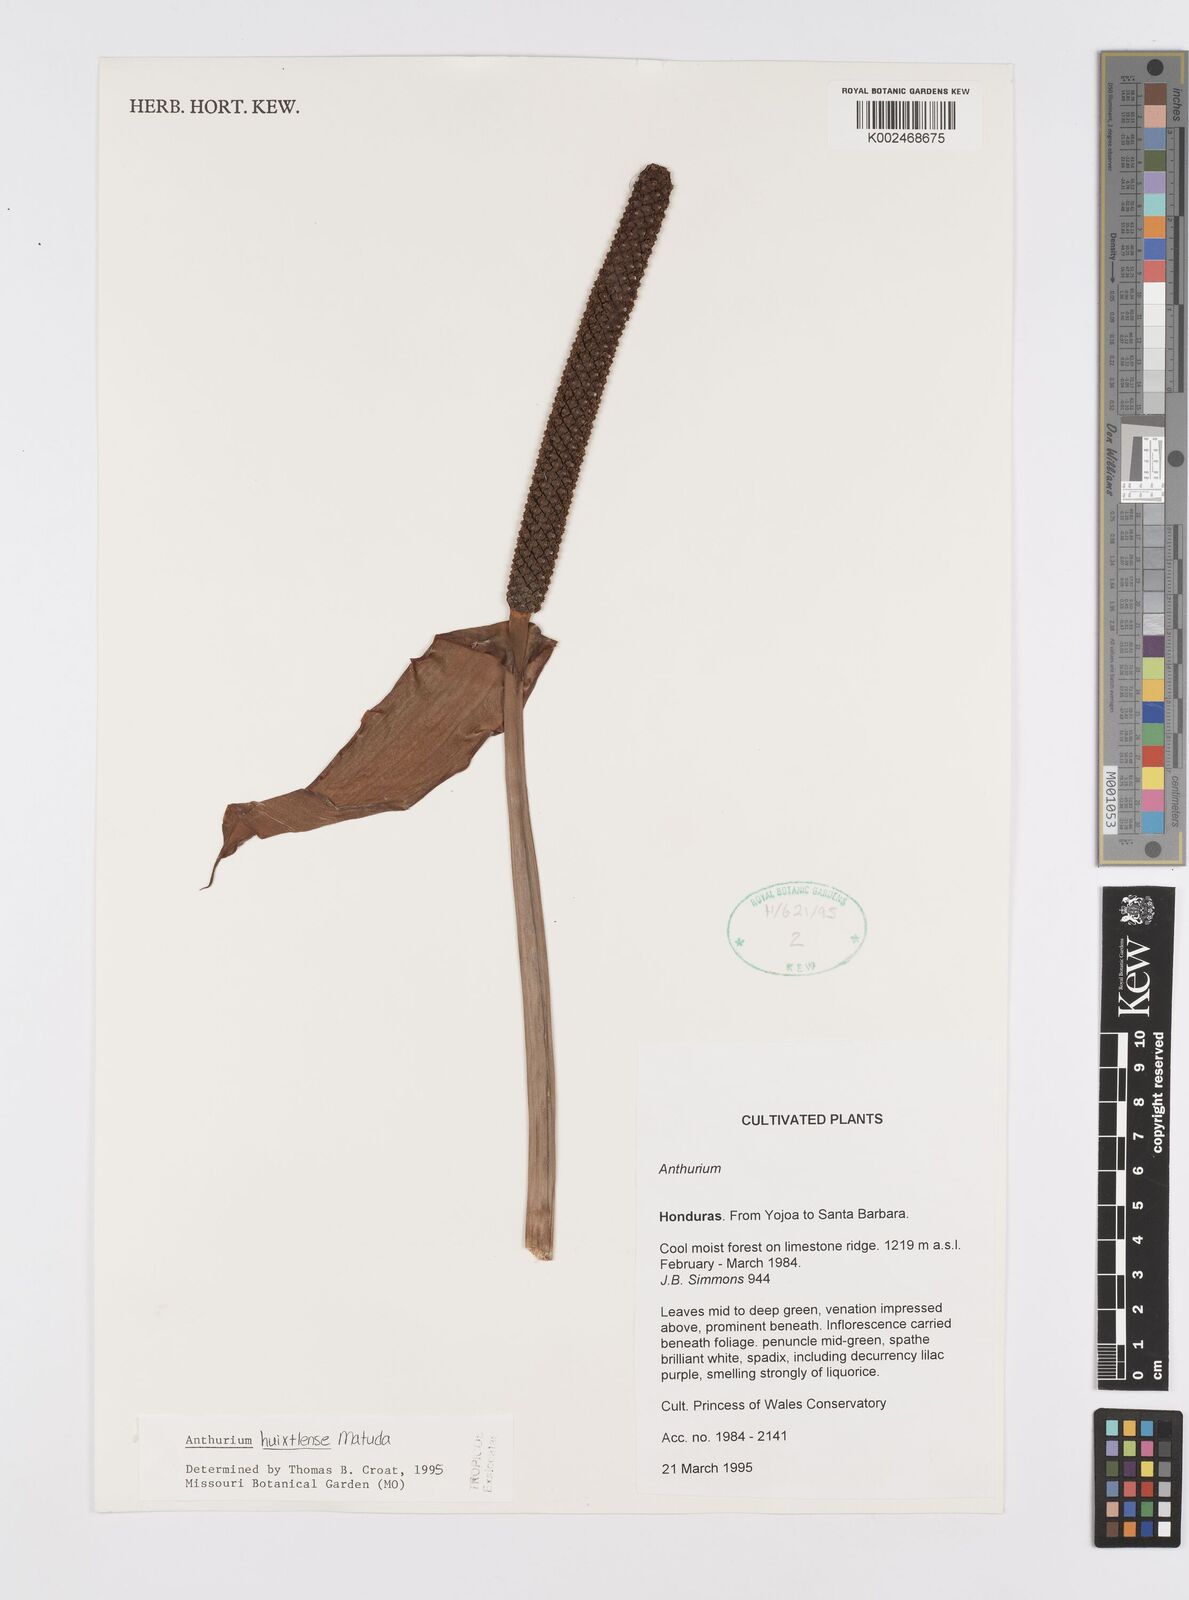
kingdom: Plantae
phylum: Tracheophyta
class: Liliopsida
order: Alismatales
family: Araceae
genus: Anthurium
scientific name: Anthurium huixtlense
